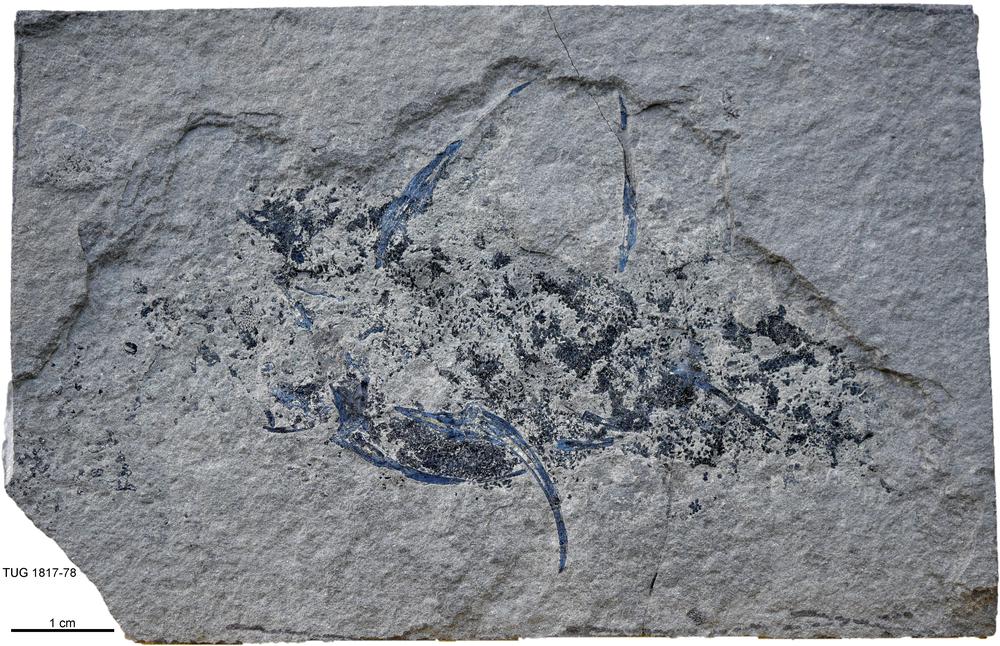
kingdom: Animalia
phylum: Chordata
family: Diplacanthidae
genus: Diplacanthus
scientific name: Diplacanthus crassisimus
